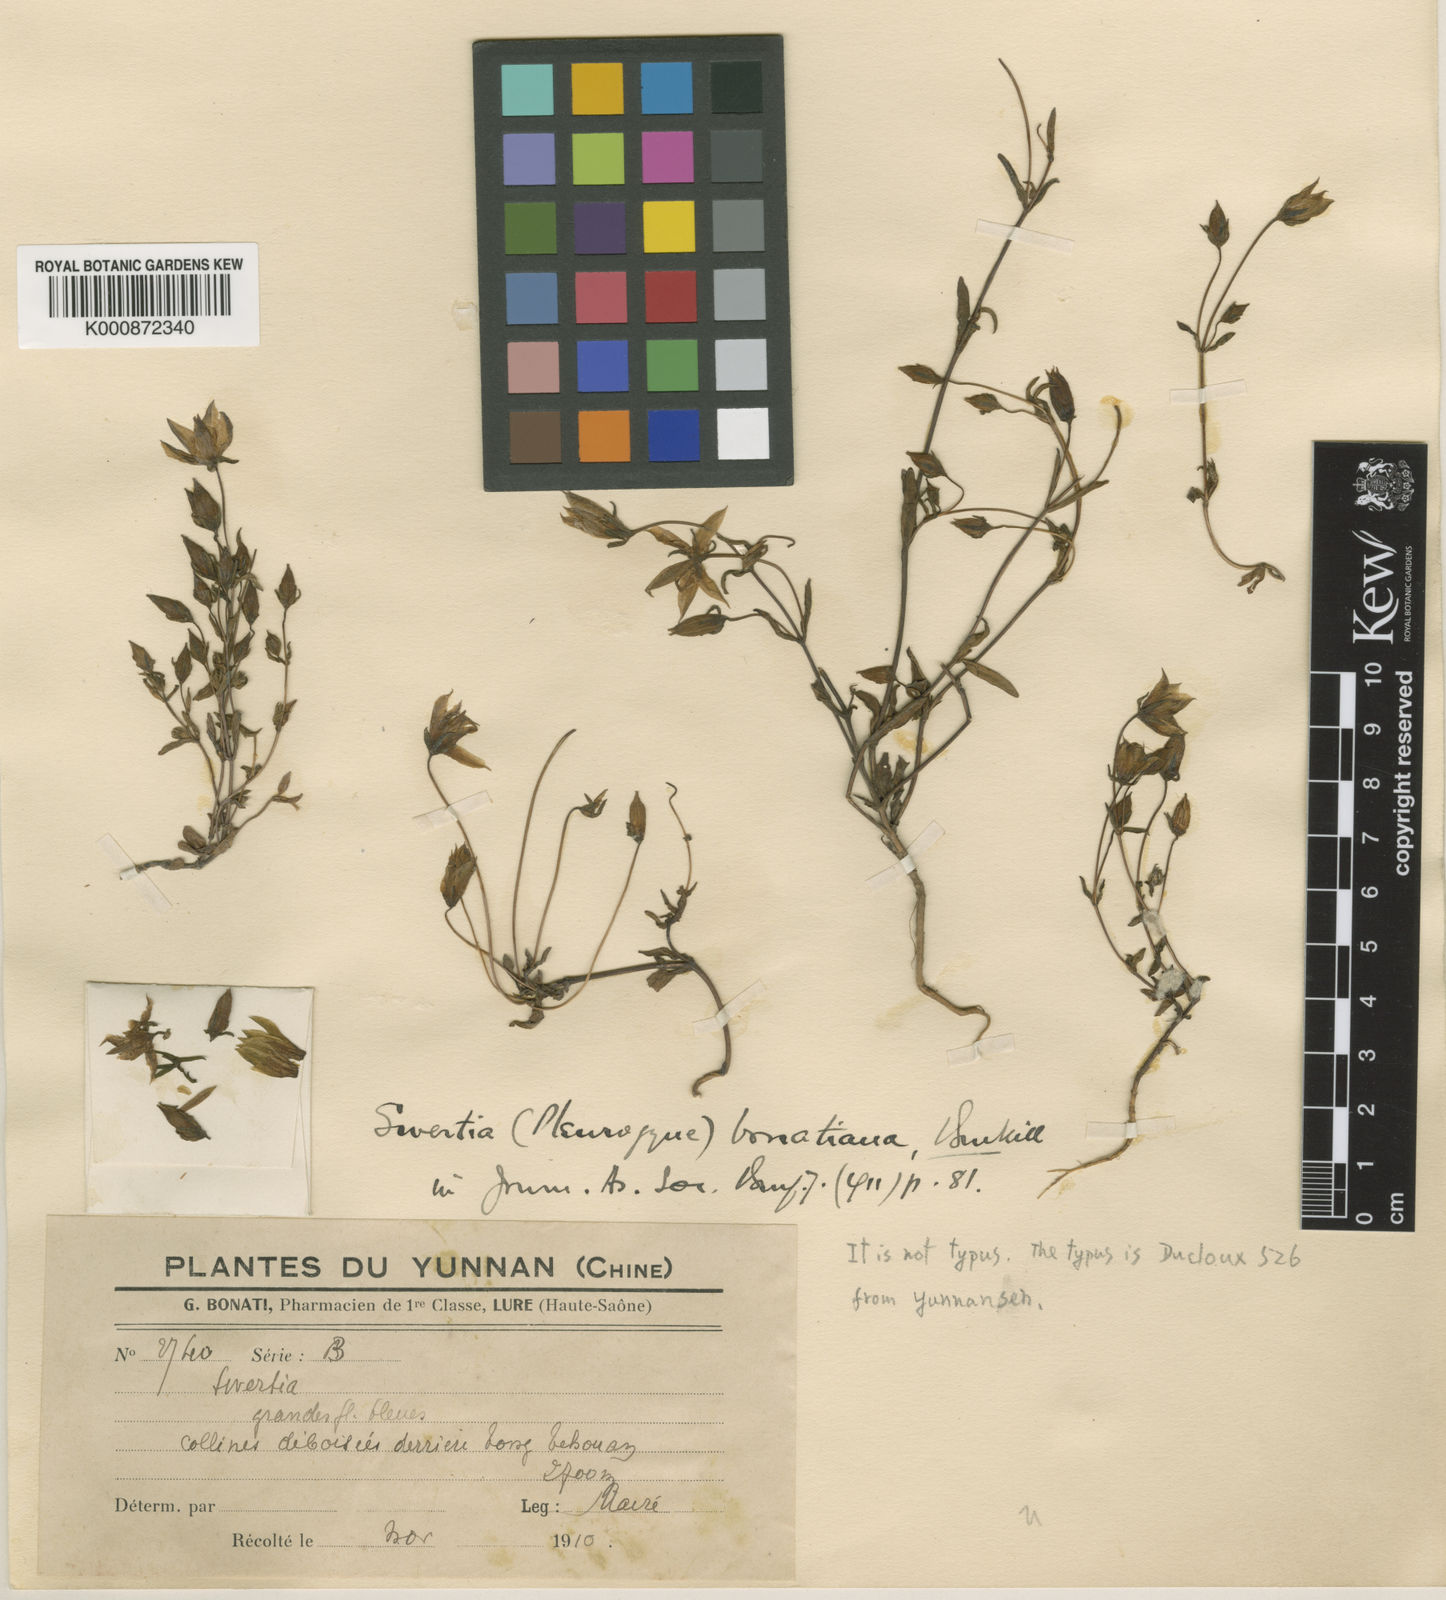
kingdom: Plantae
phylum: Tracheophyta
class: Magnoliopsida
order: Gentianales
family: Gentianaceae
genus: Lomatogonium
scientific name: Lomatogonium forrestii
